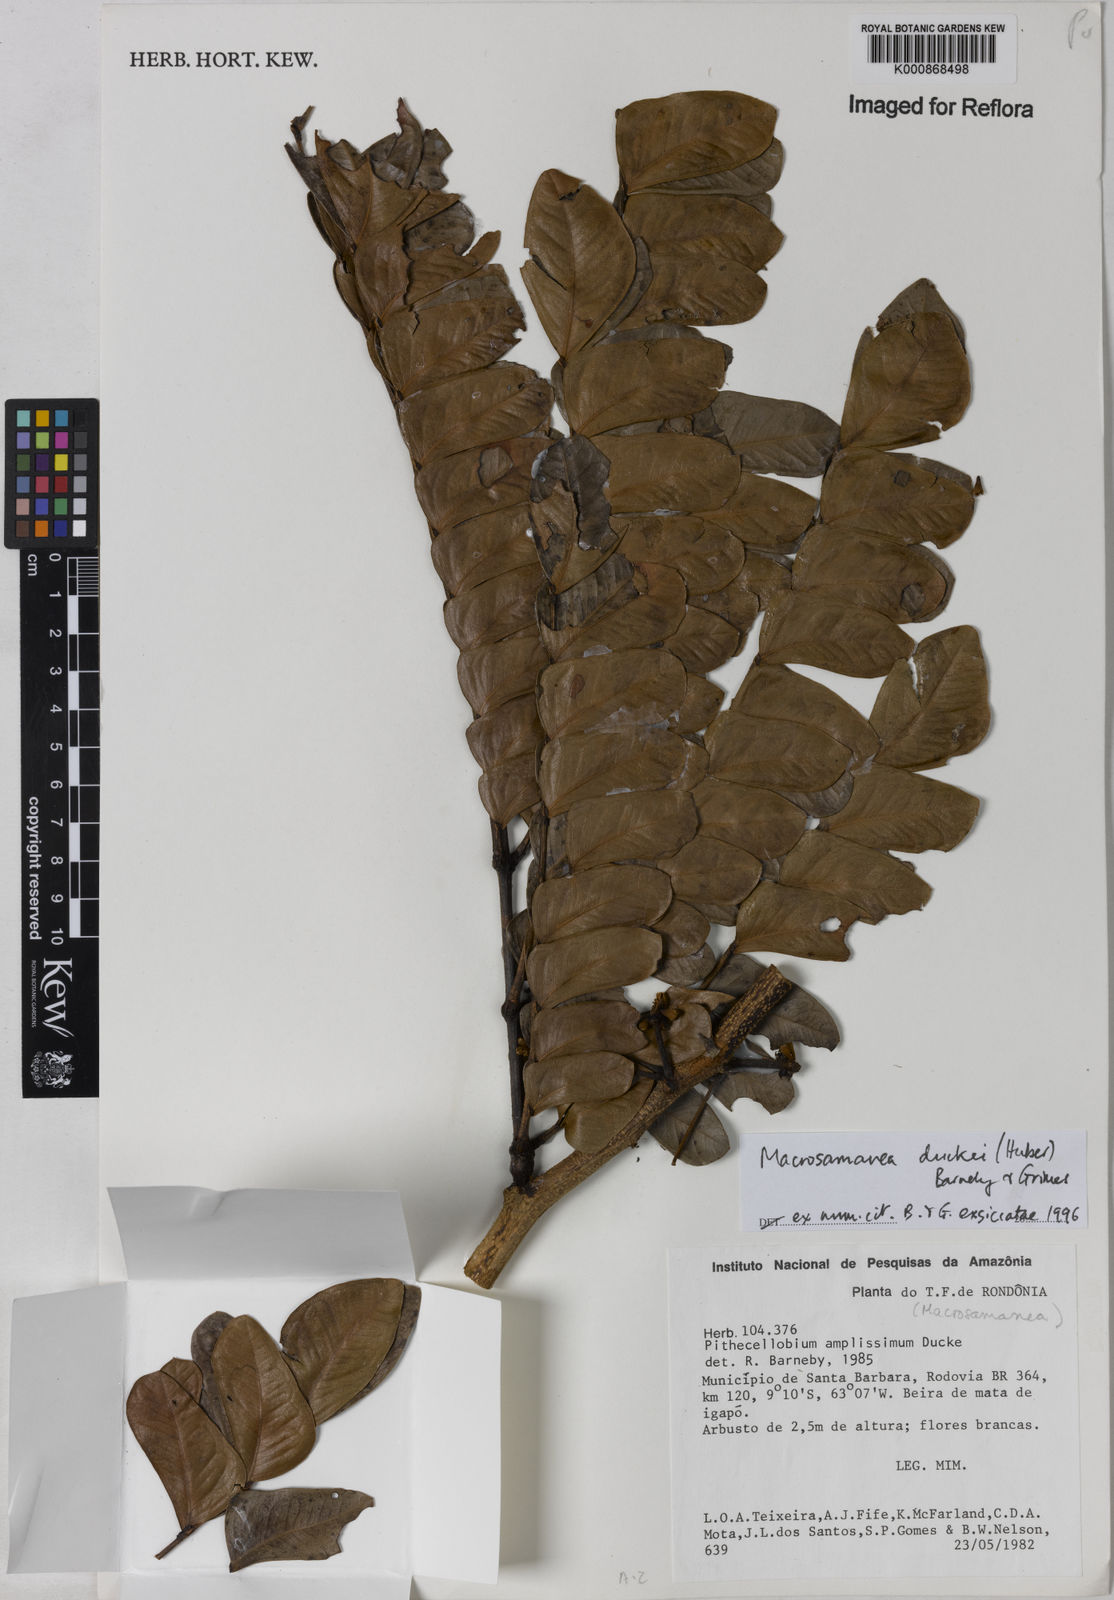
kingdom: Plantae
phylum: Tracheophyta
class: Magnoliopsida
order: Fabales
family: Fabaceae
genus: Macrosamanea
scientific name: Macrosamanea duckei
